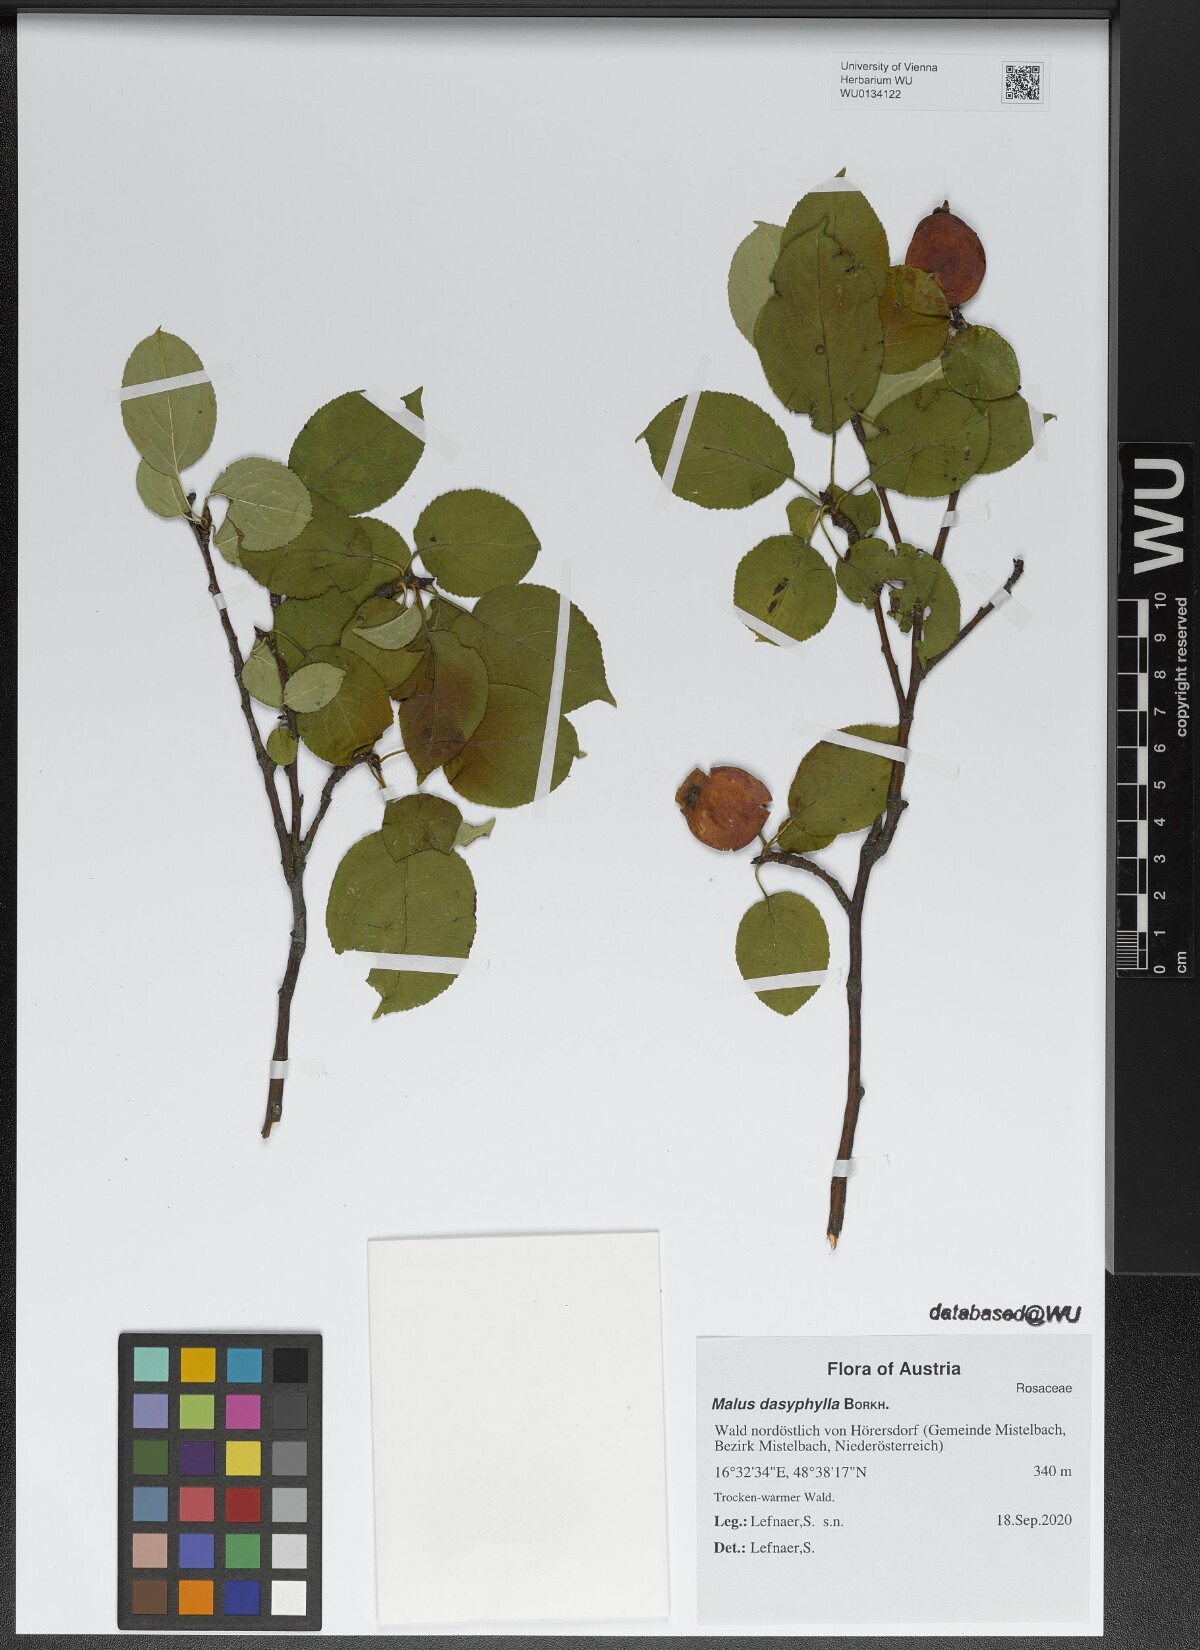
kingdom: Plantae
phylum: Tracheophyta
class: Magnoliopsida
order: Rosales
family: Rosaceae
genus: Malus
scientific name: Malus dasyphylla
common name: Paradise apple
